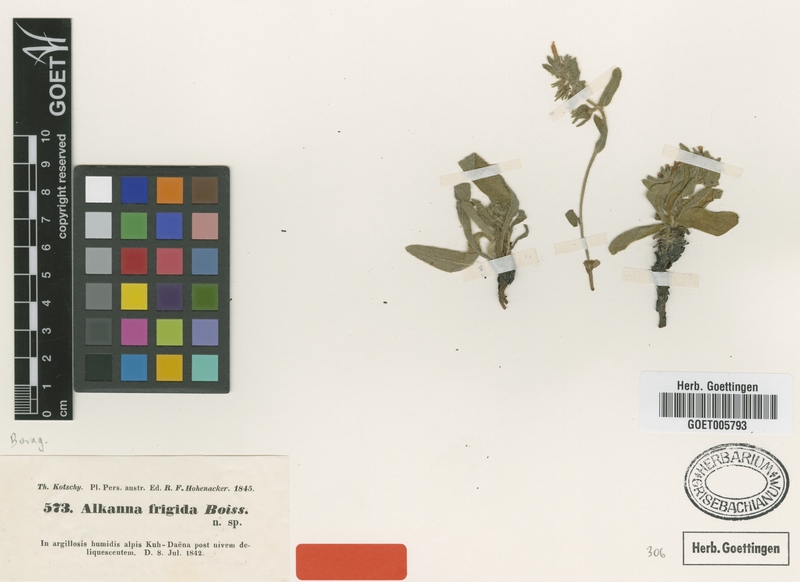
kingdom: Plantae
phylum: Tracheophyta
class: Magnoliopsida
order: Boraginales
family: Boraginaceae
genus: Alkanna
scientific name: Alkanna frigida
